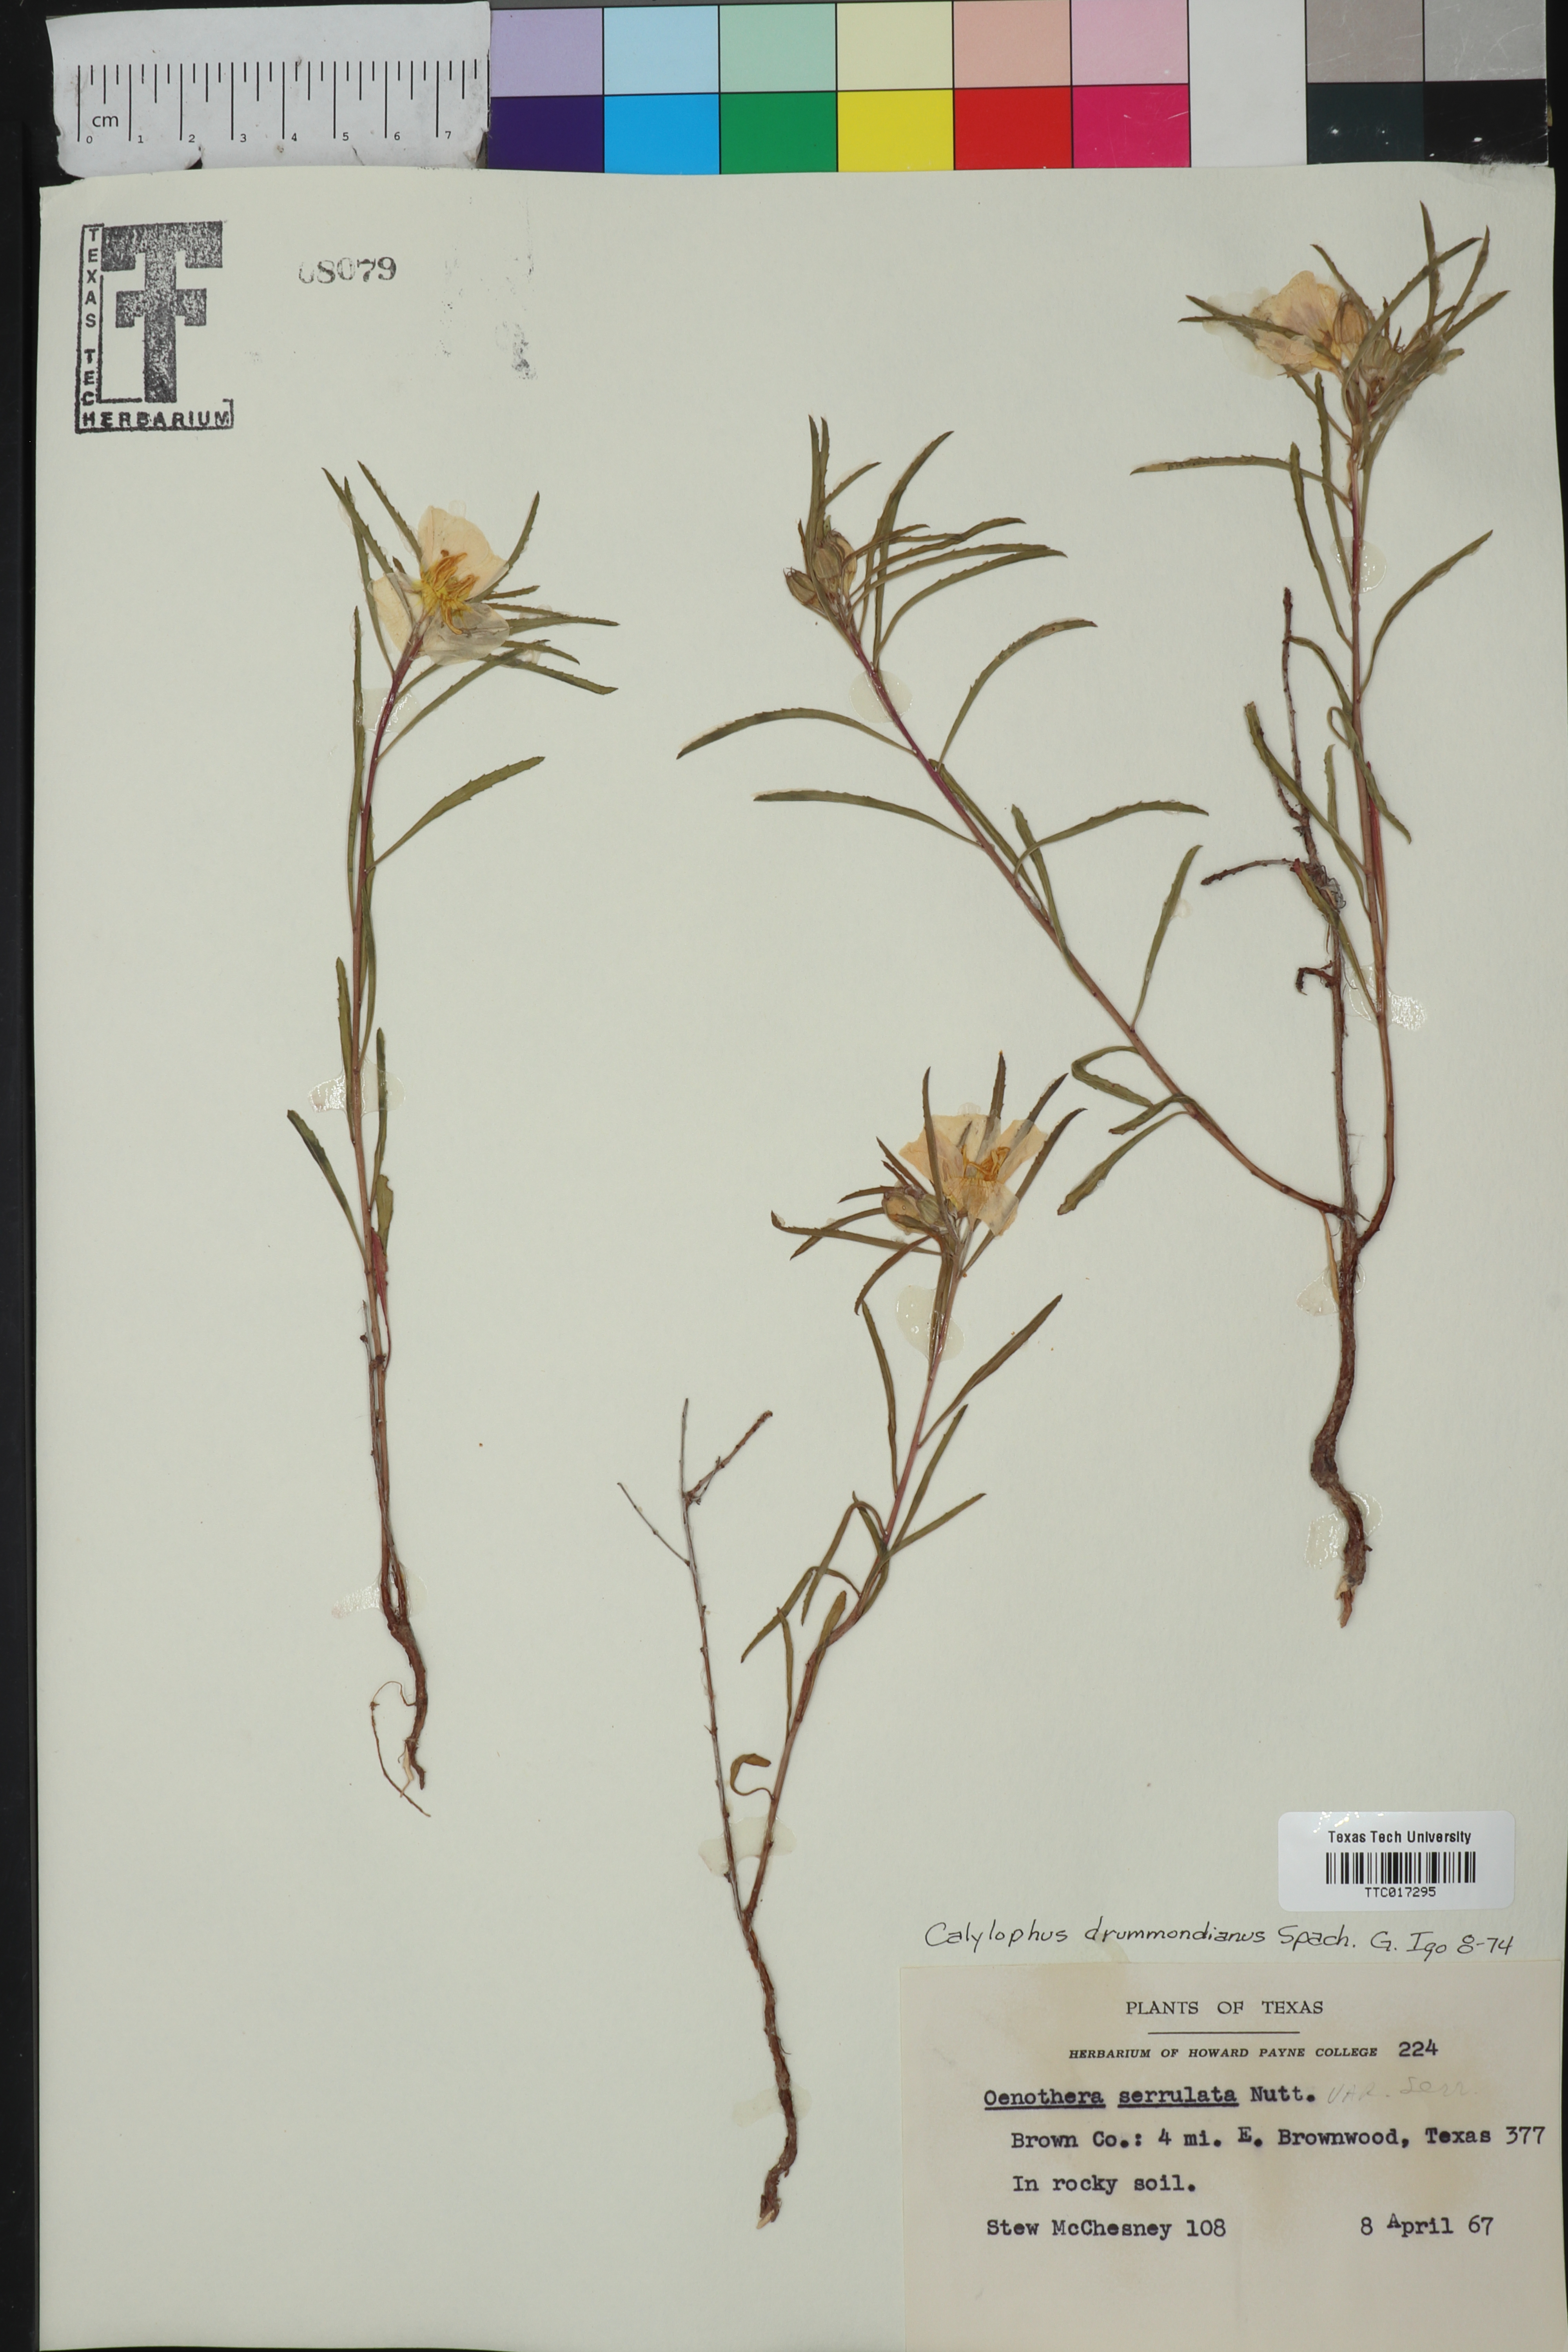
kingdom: Plantae
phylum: Tracheophyta
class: Magnoliopsida
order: Myrtales
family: Onagraceae
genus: Oenothera
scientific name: Oenothera serrulata
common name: Half-shrub calylophus
